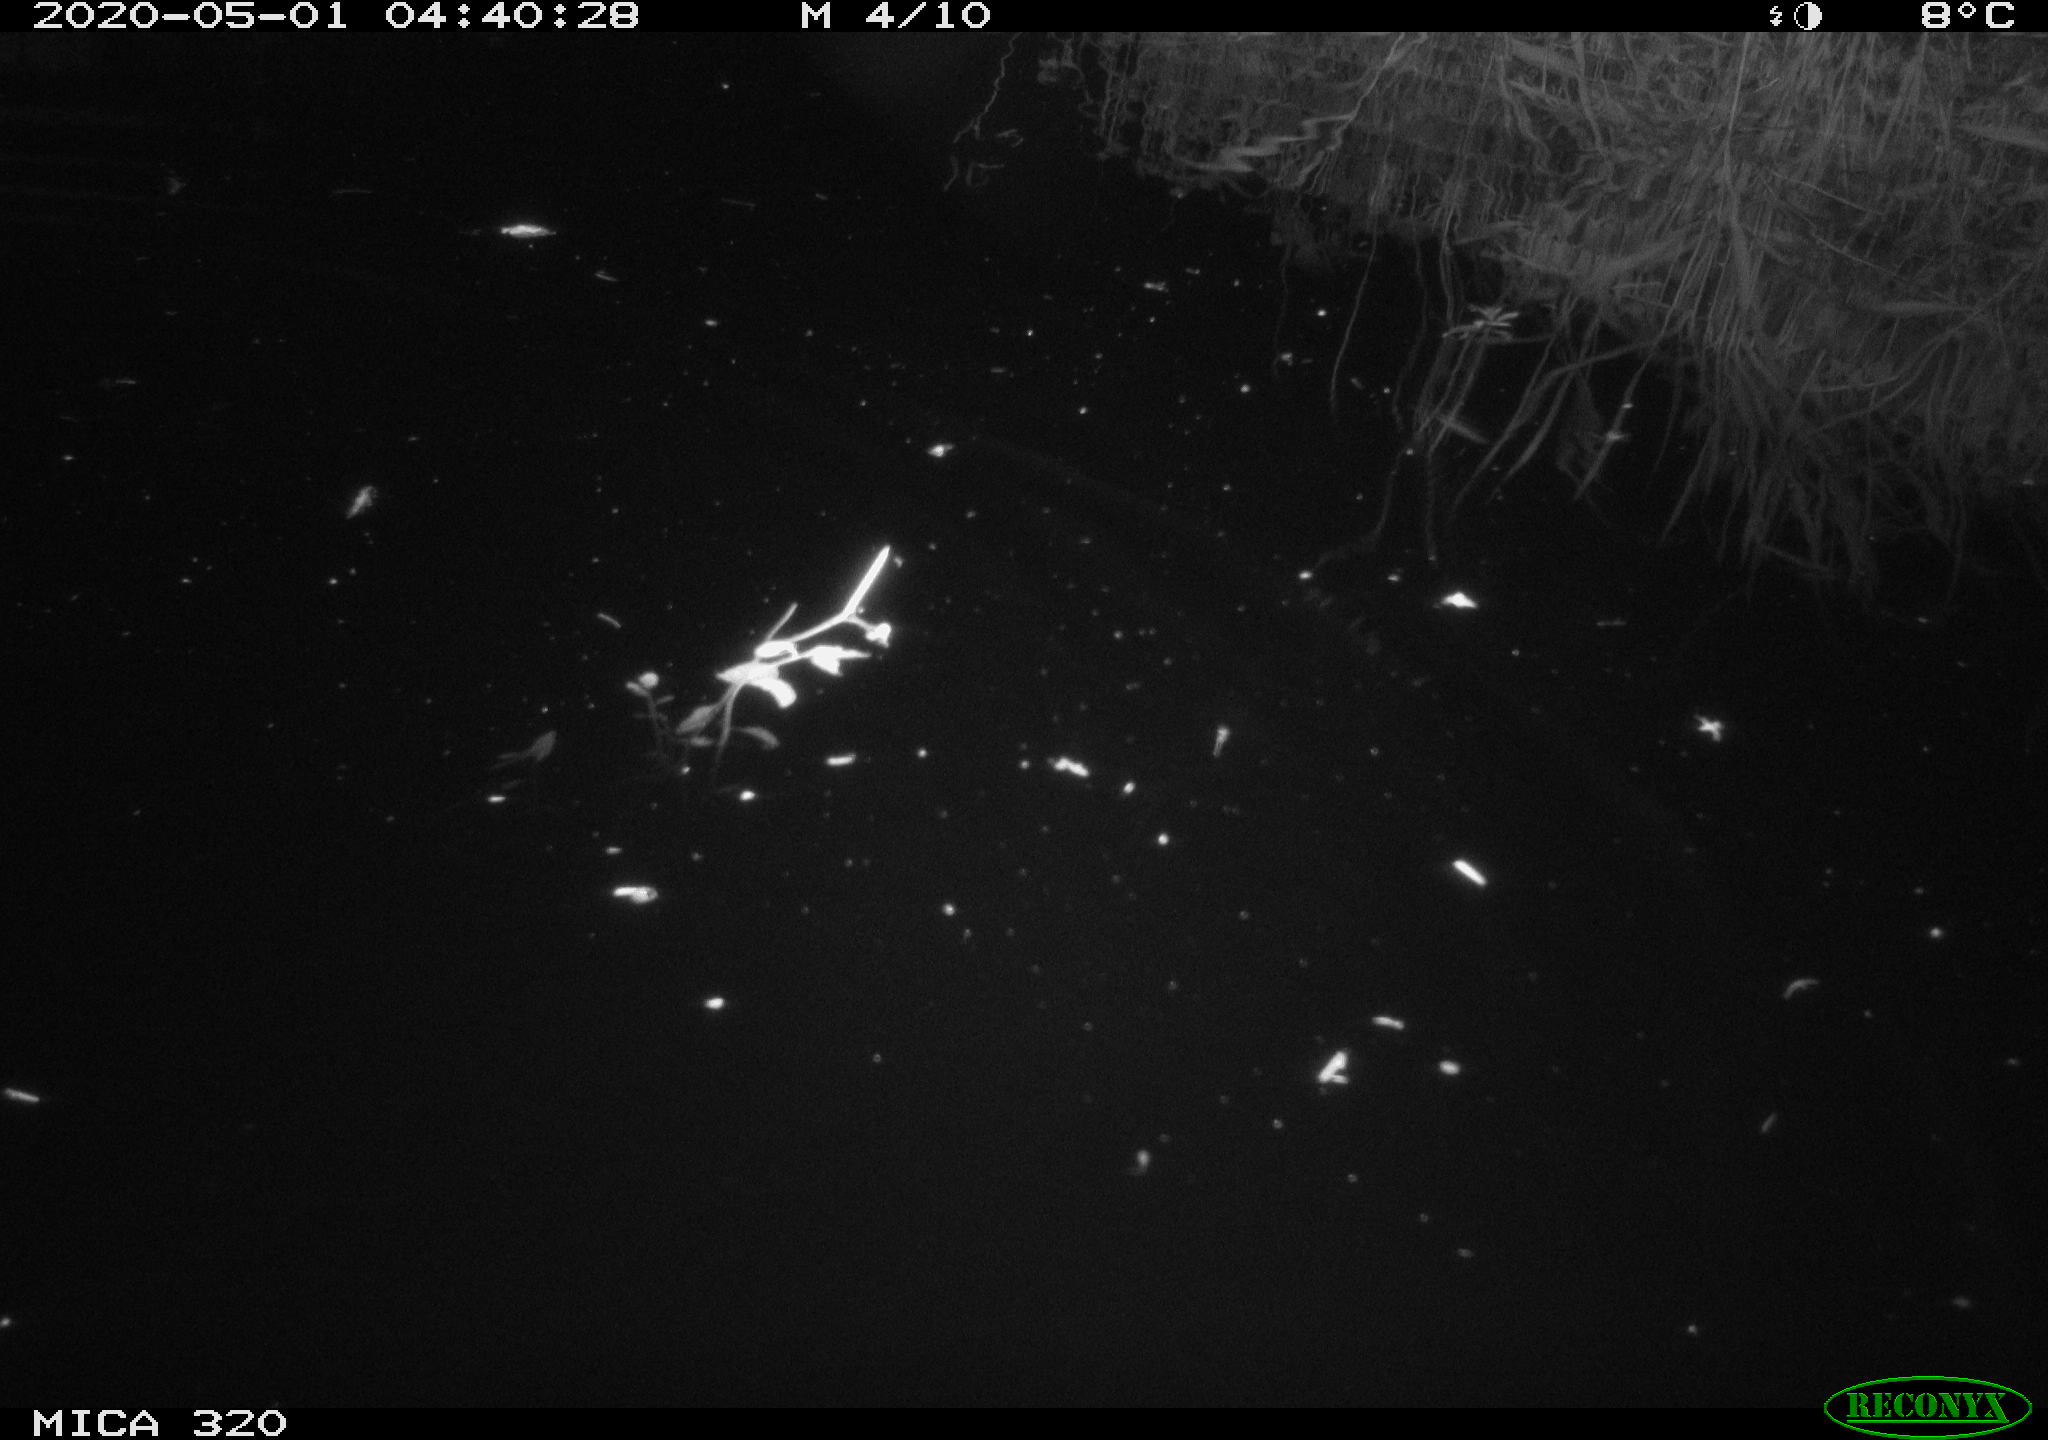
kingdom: Animalia
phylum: Chordata
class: Aves
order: Anseriformes
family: Anatidae
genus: Anas
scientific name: Anas platyrhynchos
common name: Mallard
